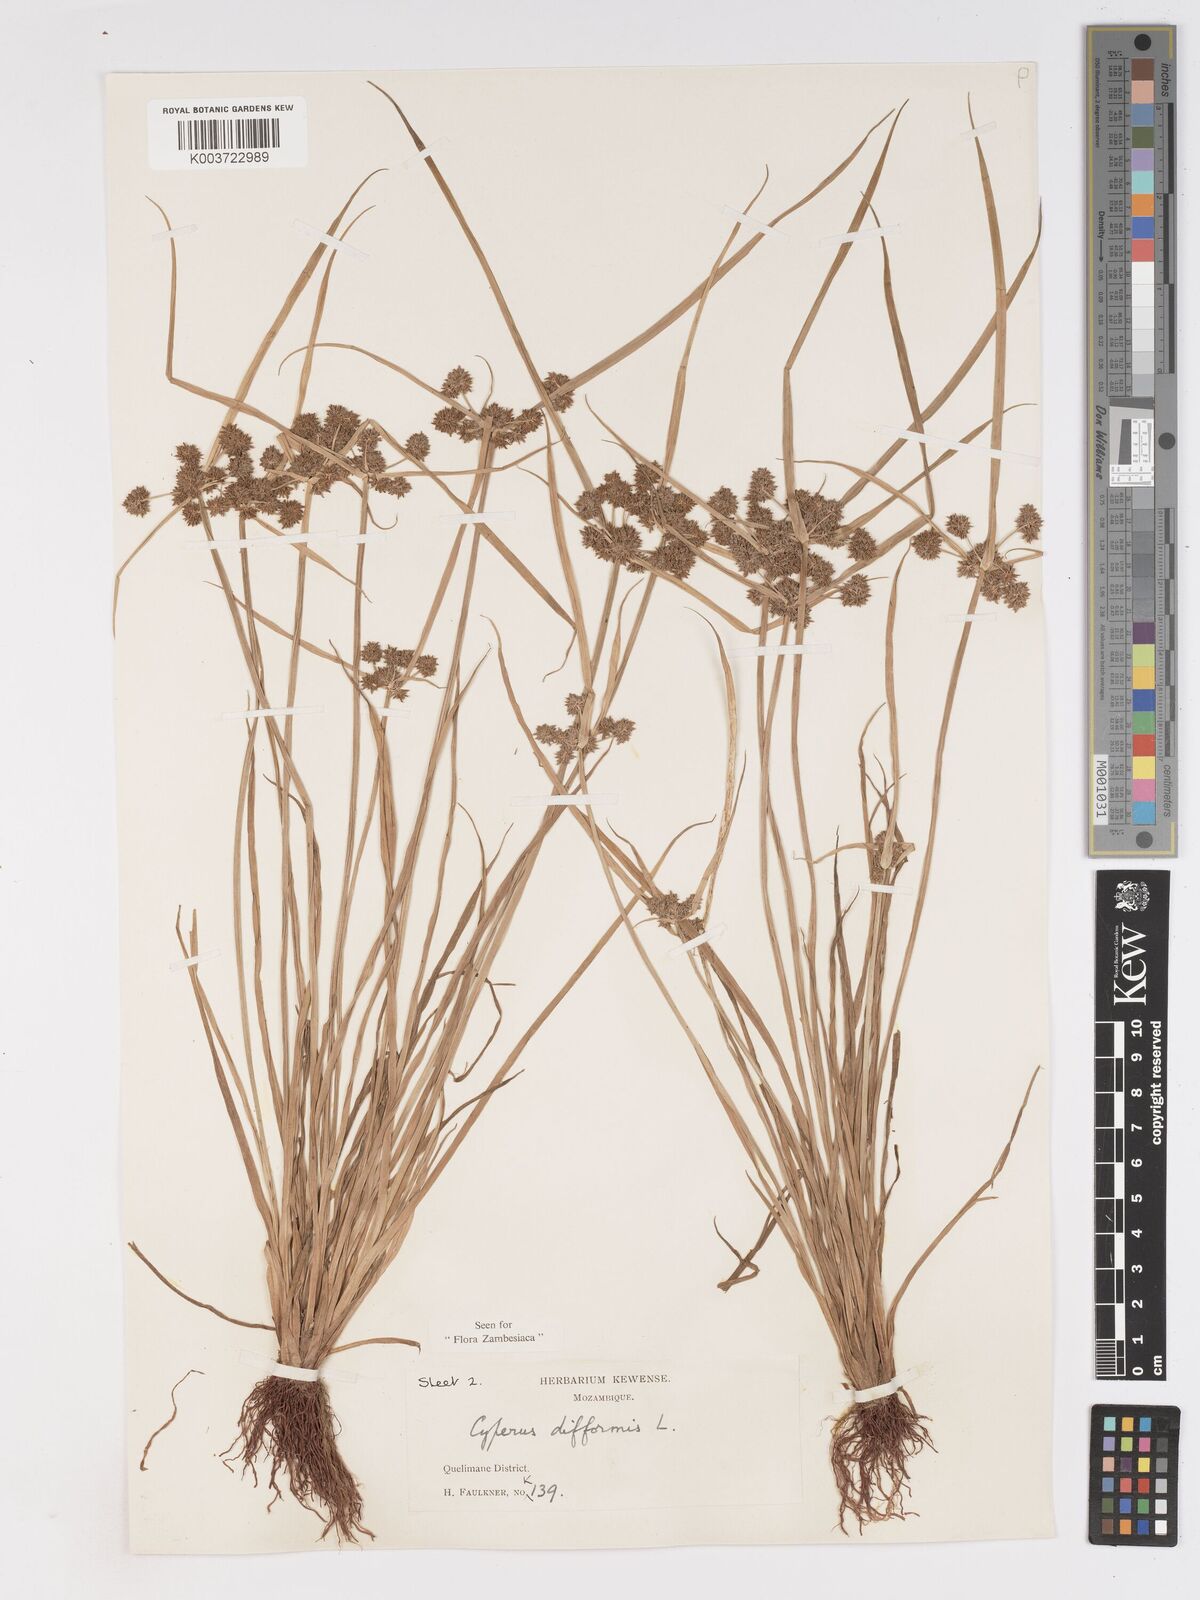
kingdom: Plantae
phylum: Tracheophyta
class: Liliopsida
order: Poales
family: Cyperaceae
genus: Cyperus
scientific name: Cyperus difformis
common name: Variable flatsedge
